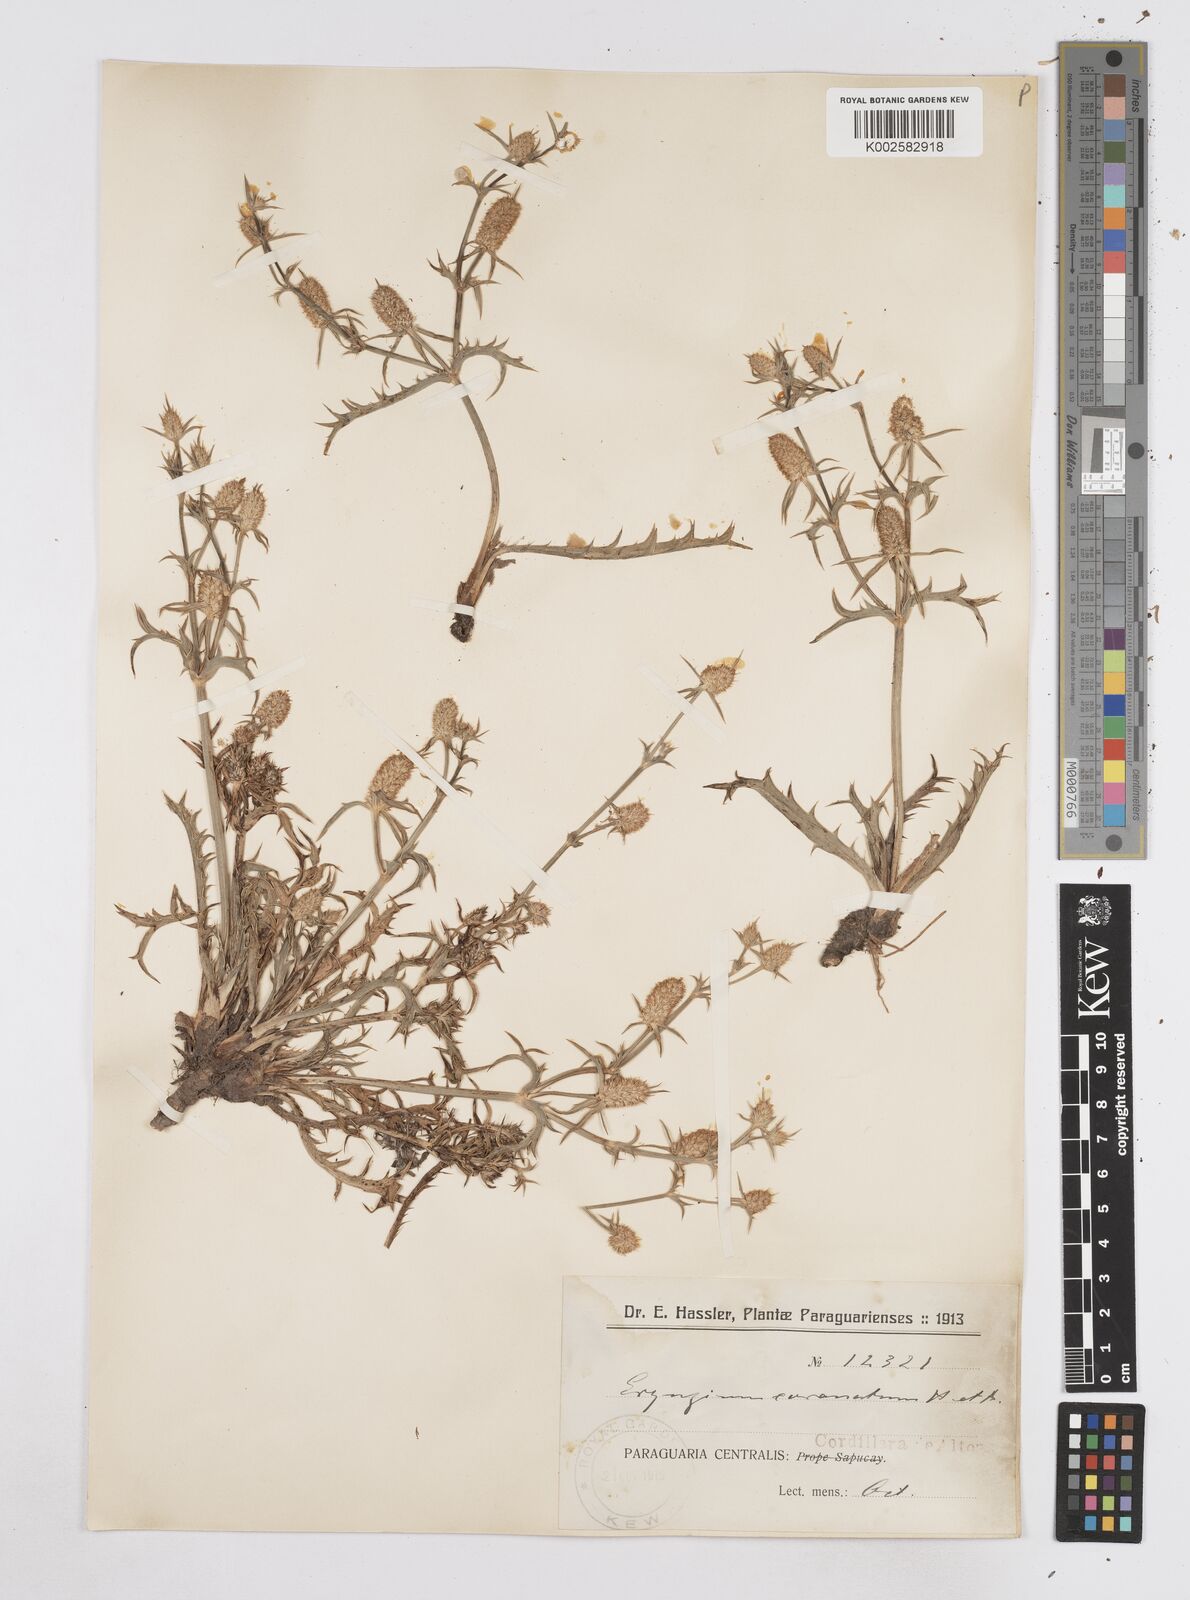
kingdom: Plantae
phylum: Tracheophyta
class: Magnoliopsida
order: Apiales
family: Apiaceae
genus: Eryngium
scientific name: Eryngium coronatum
